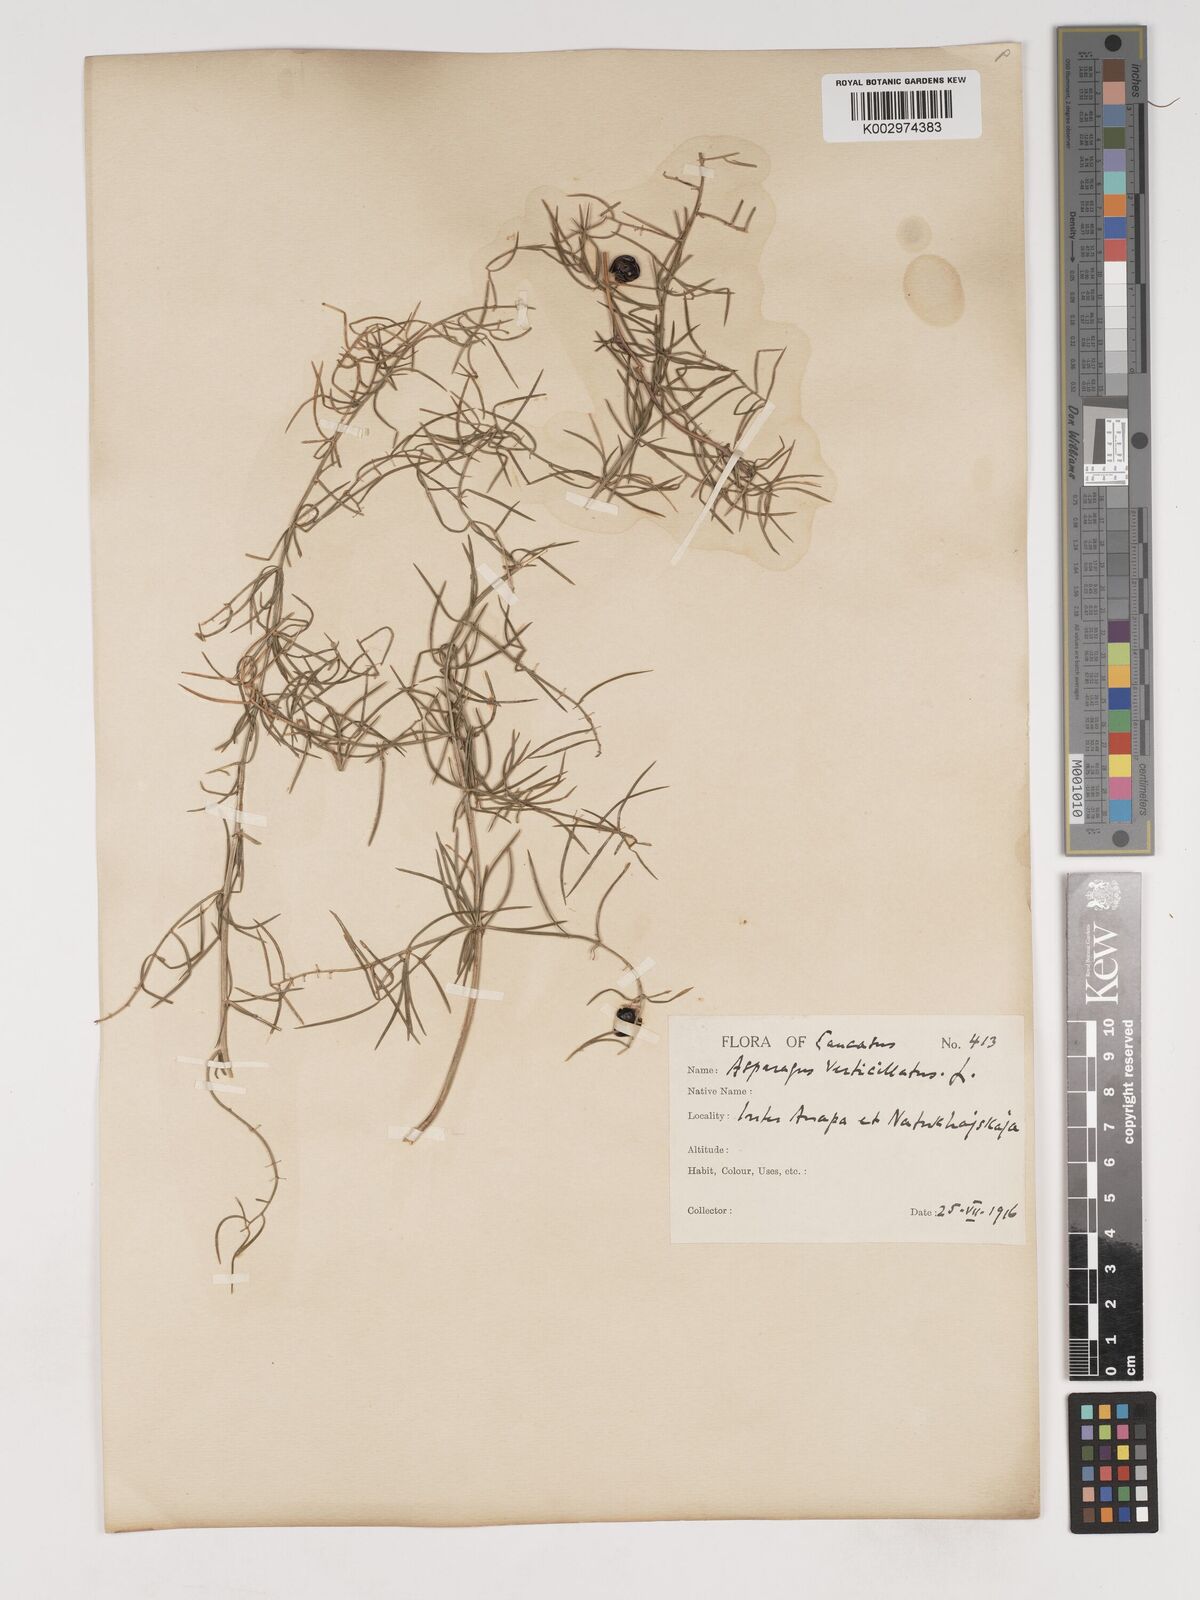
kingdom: Plantae
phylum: Tracheophyta
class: Liliopsida
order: Asparagales
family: Asparagaceae
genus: Asparagus
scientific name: Asparagus verticillatus
